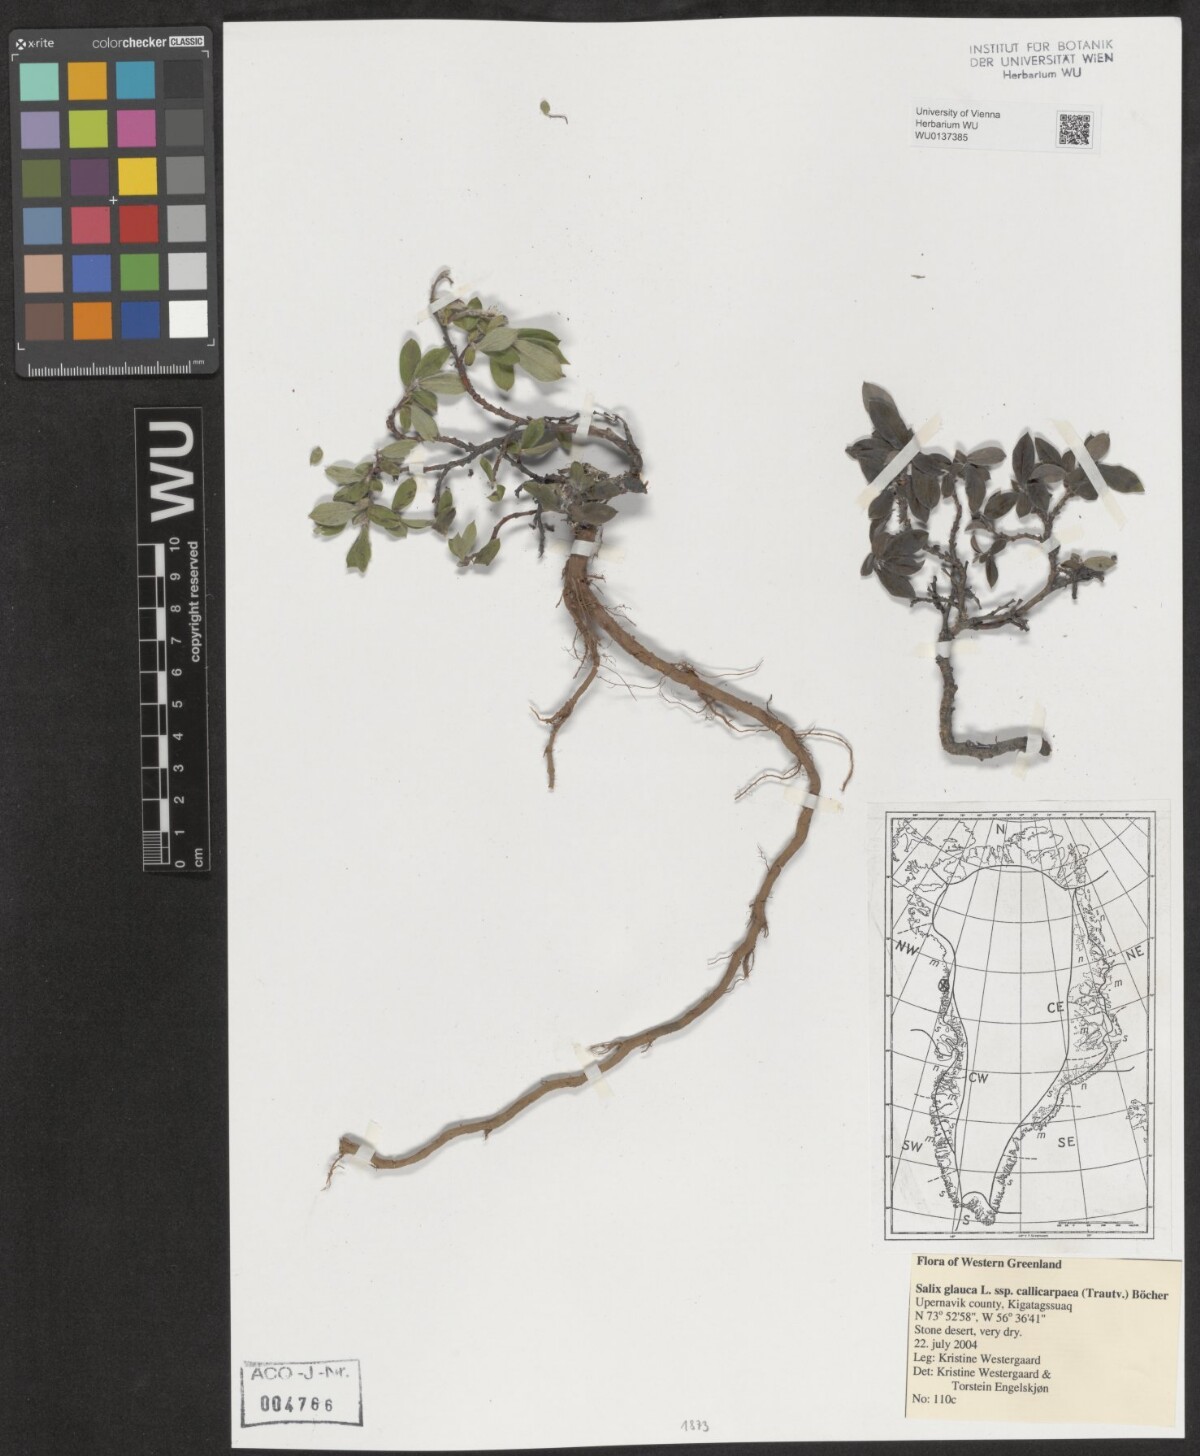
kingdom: Plantae
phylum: Tracheophyta
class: Magnoliopsida
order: Malpighiales
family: Salicaceae
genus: Salix
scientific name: Salix glauca
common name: Glaucous willow
